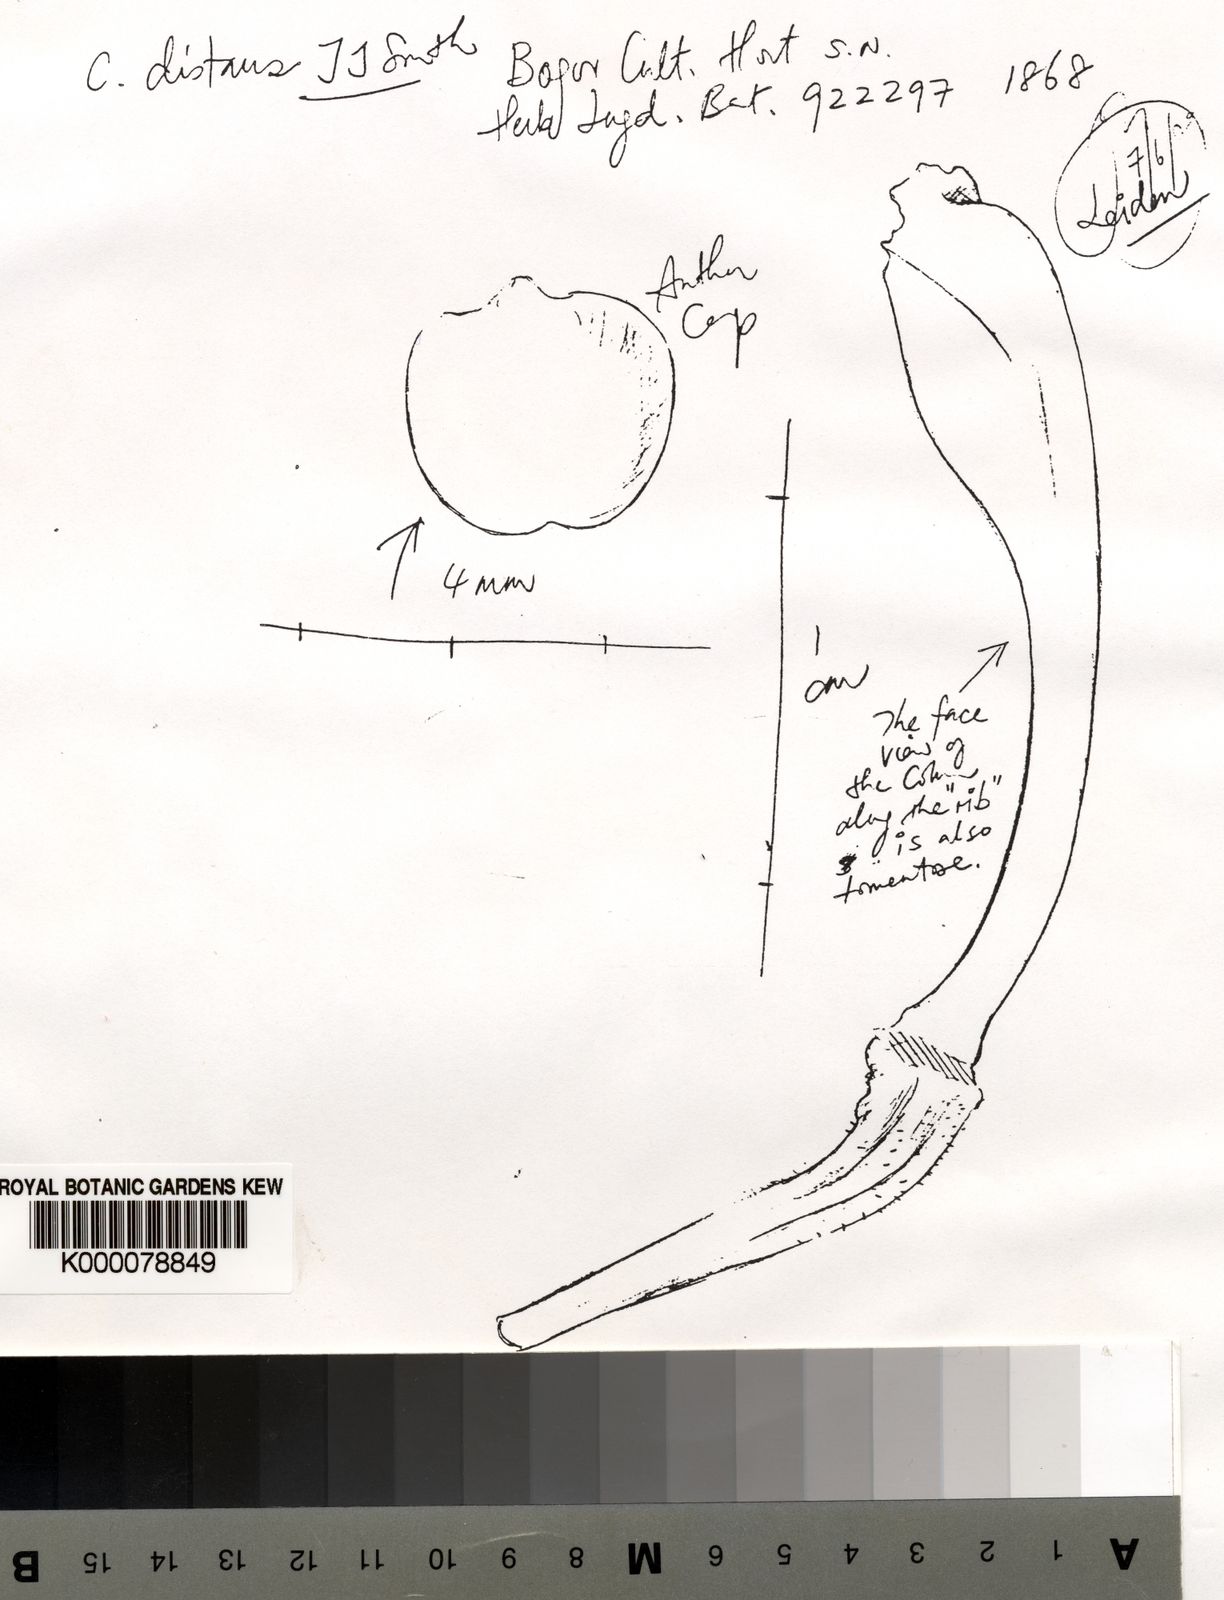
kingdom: Plantae
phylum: Tracheophyta
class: Liliopsida
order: Asparagales
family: Orchidaceae
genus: Coelogyne
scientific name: Coelogyne distans
